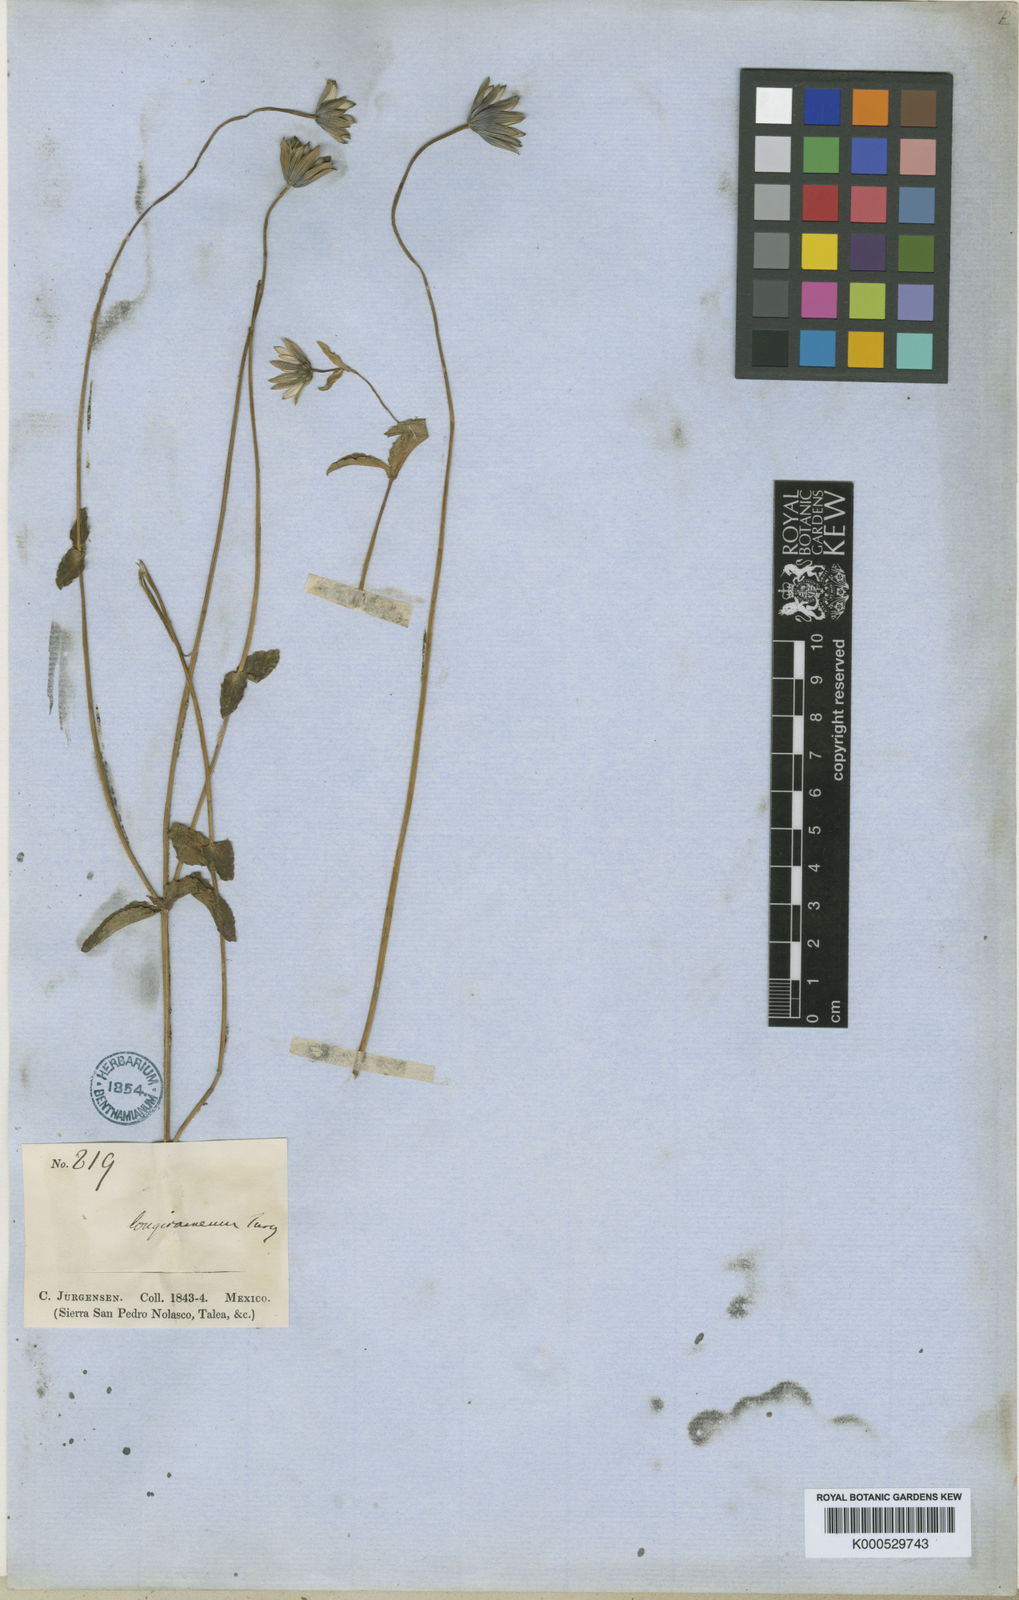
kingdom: Plantae
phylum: Tracheophyta
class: Magnoliopsida
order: Apiales
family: Apiaceae
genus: Eryngium
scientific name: Eryngium gracile
